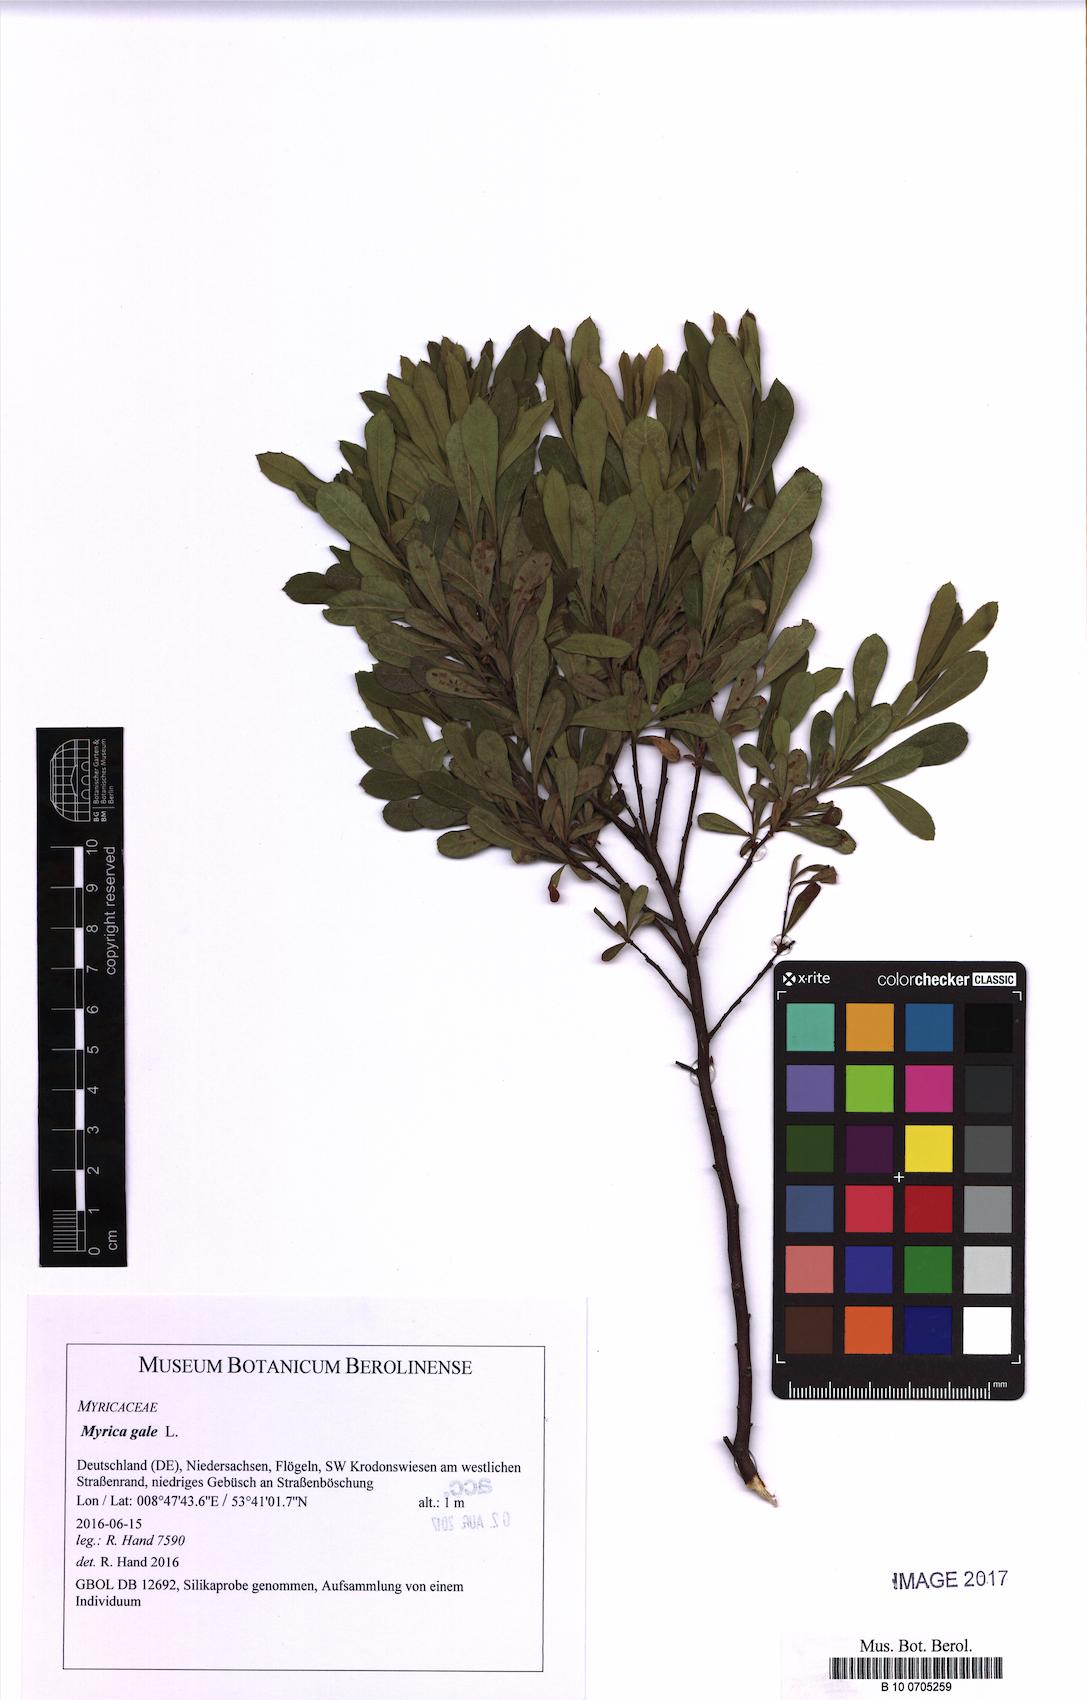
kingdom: Plantae
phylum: Tracheophyta
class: Magnoliopsida
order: Fagales
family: Myricaceae
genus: Myrica
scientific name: Myrica gale
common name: Sweet gale
